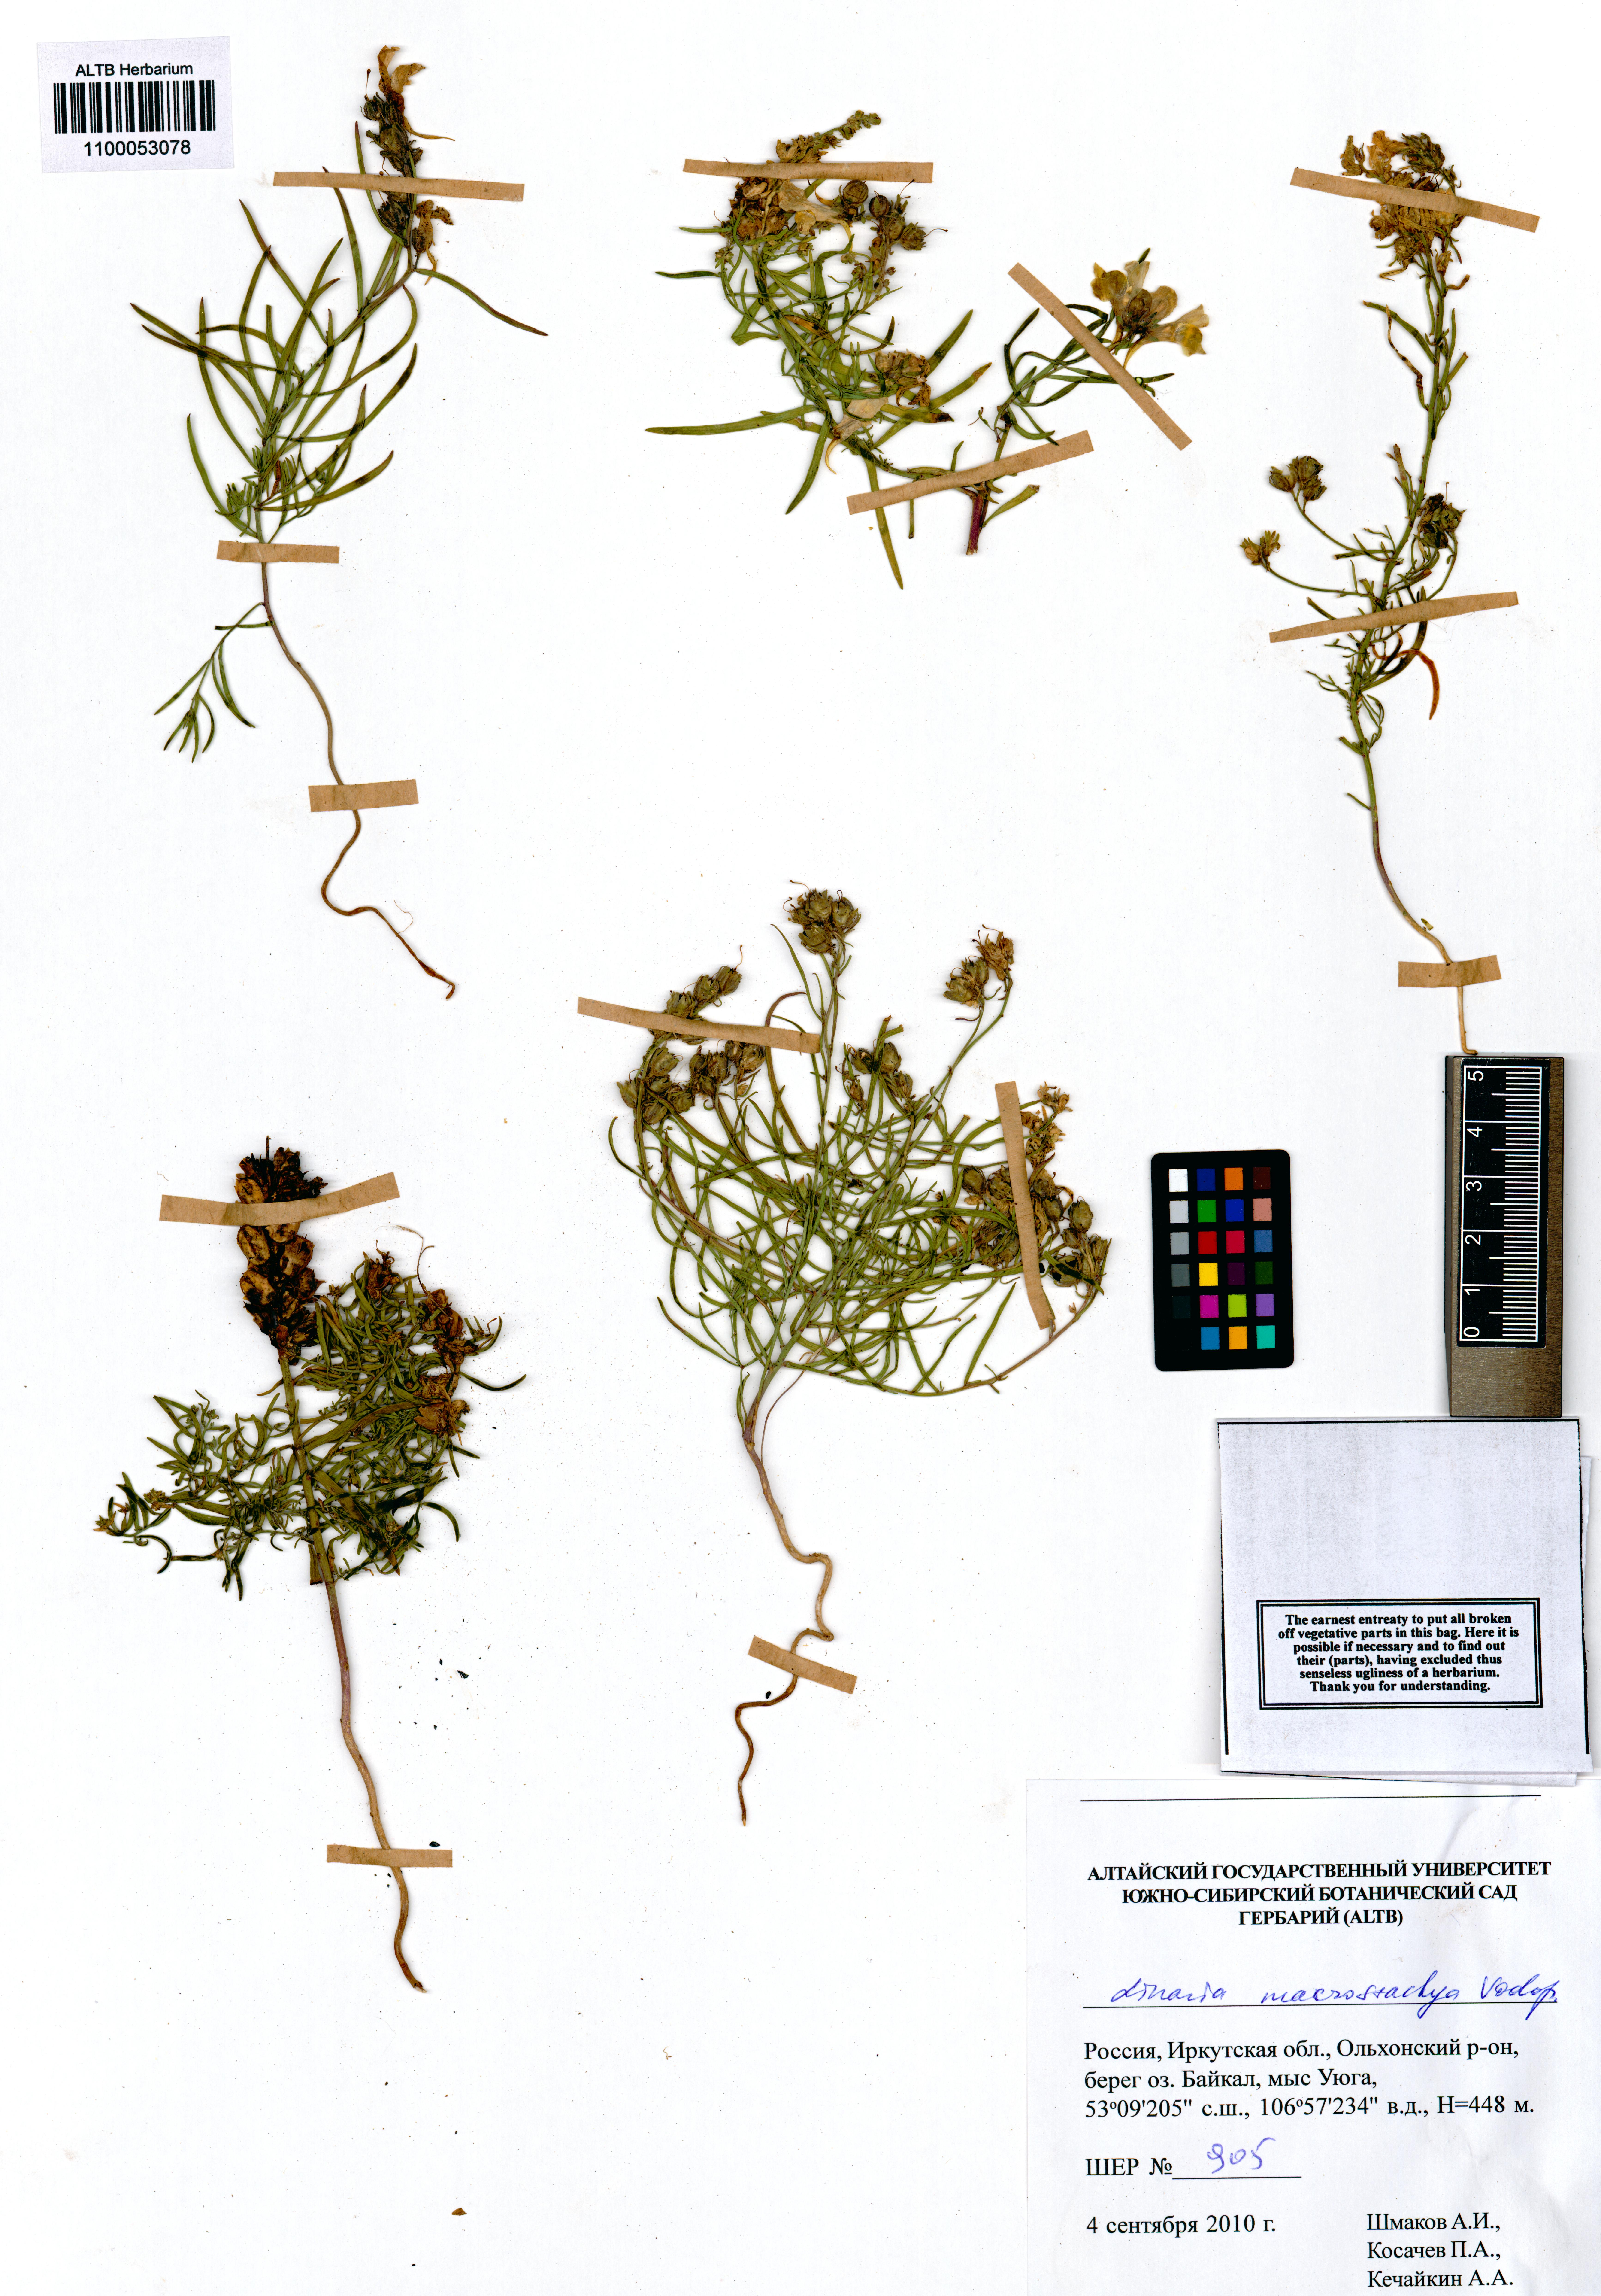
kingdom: Plantae
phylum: Tracheophyta
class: Magnoliopsida
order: Lamiales
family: Plantaginaceae
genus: Linaria
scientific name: Linaria buriatica
